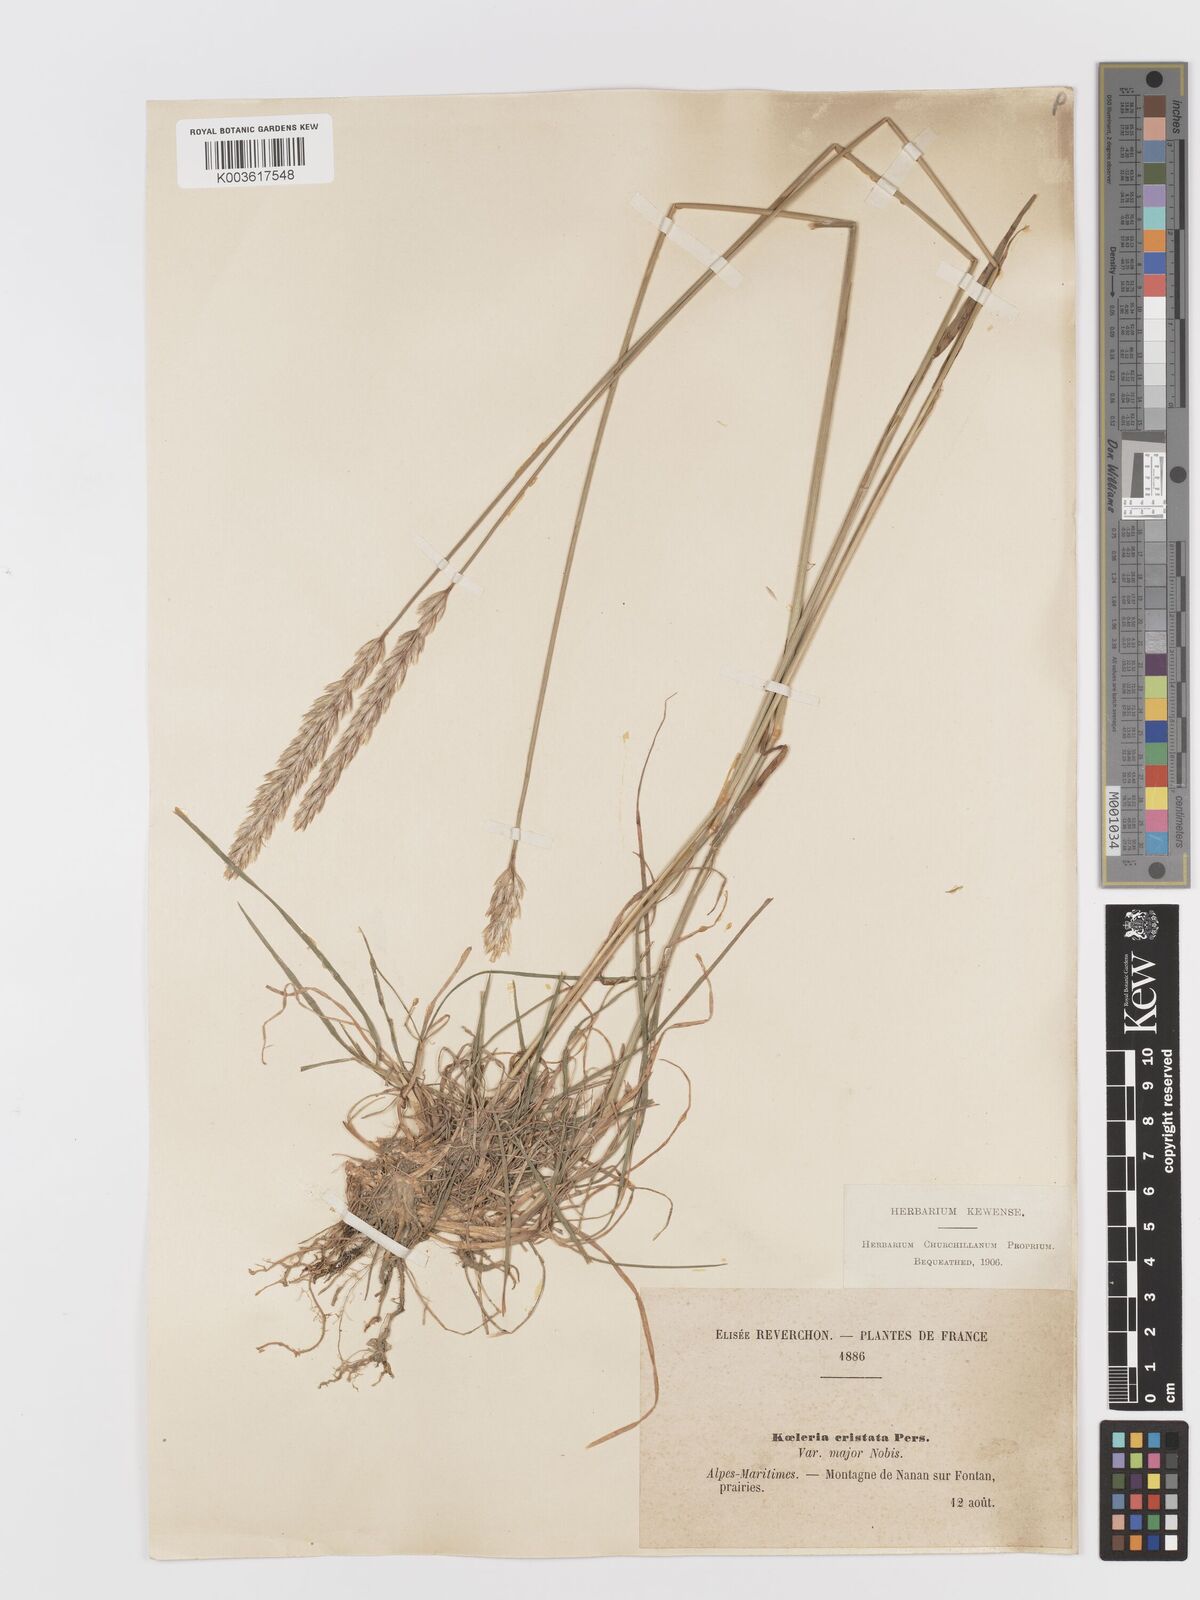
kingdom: Plantae
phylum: Tracheophyta
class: Liliopsida
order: Poales
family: Poaceae
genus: Koeleria
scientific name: Koeleria
